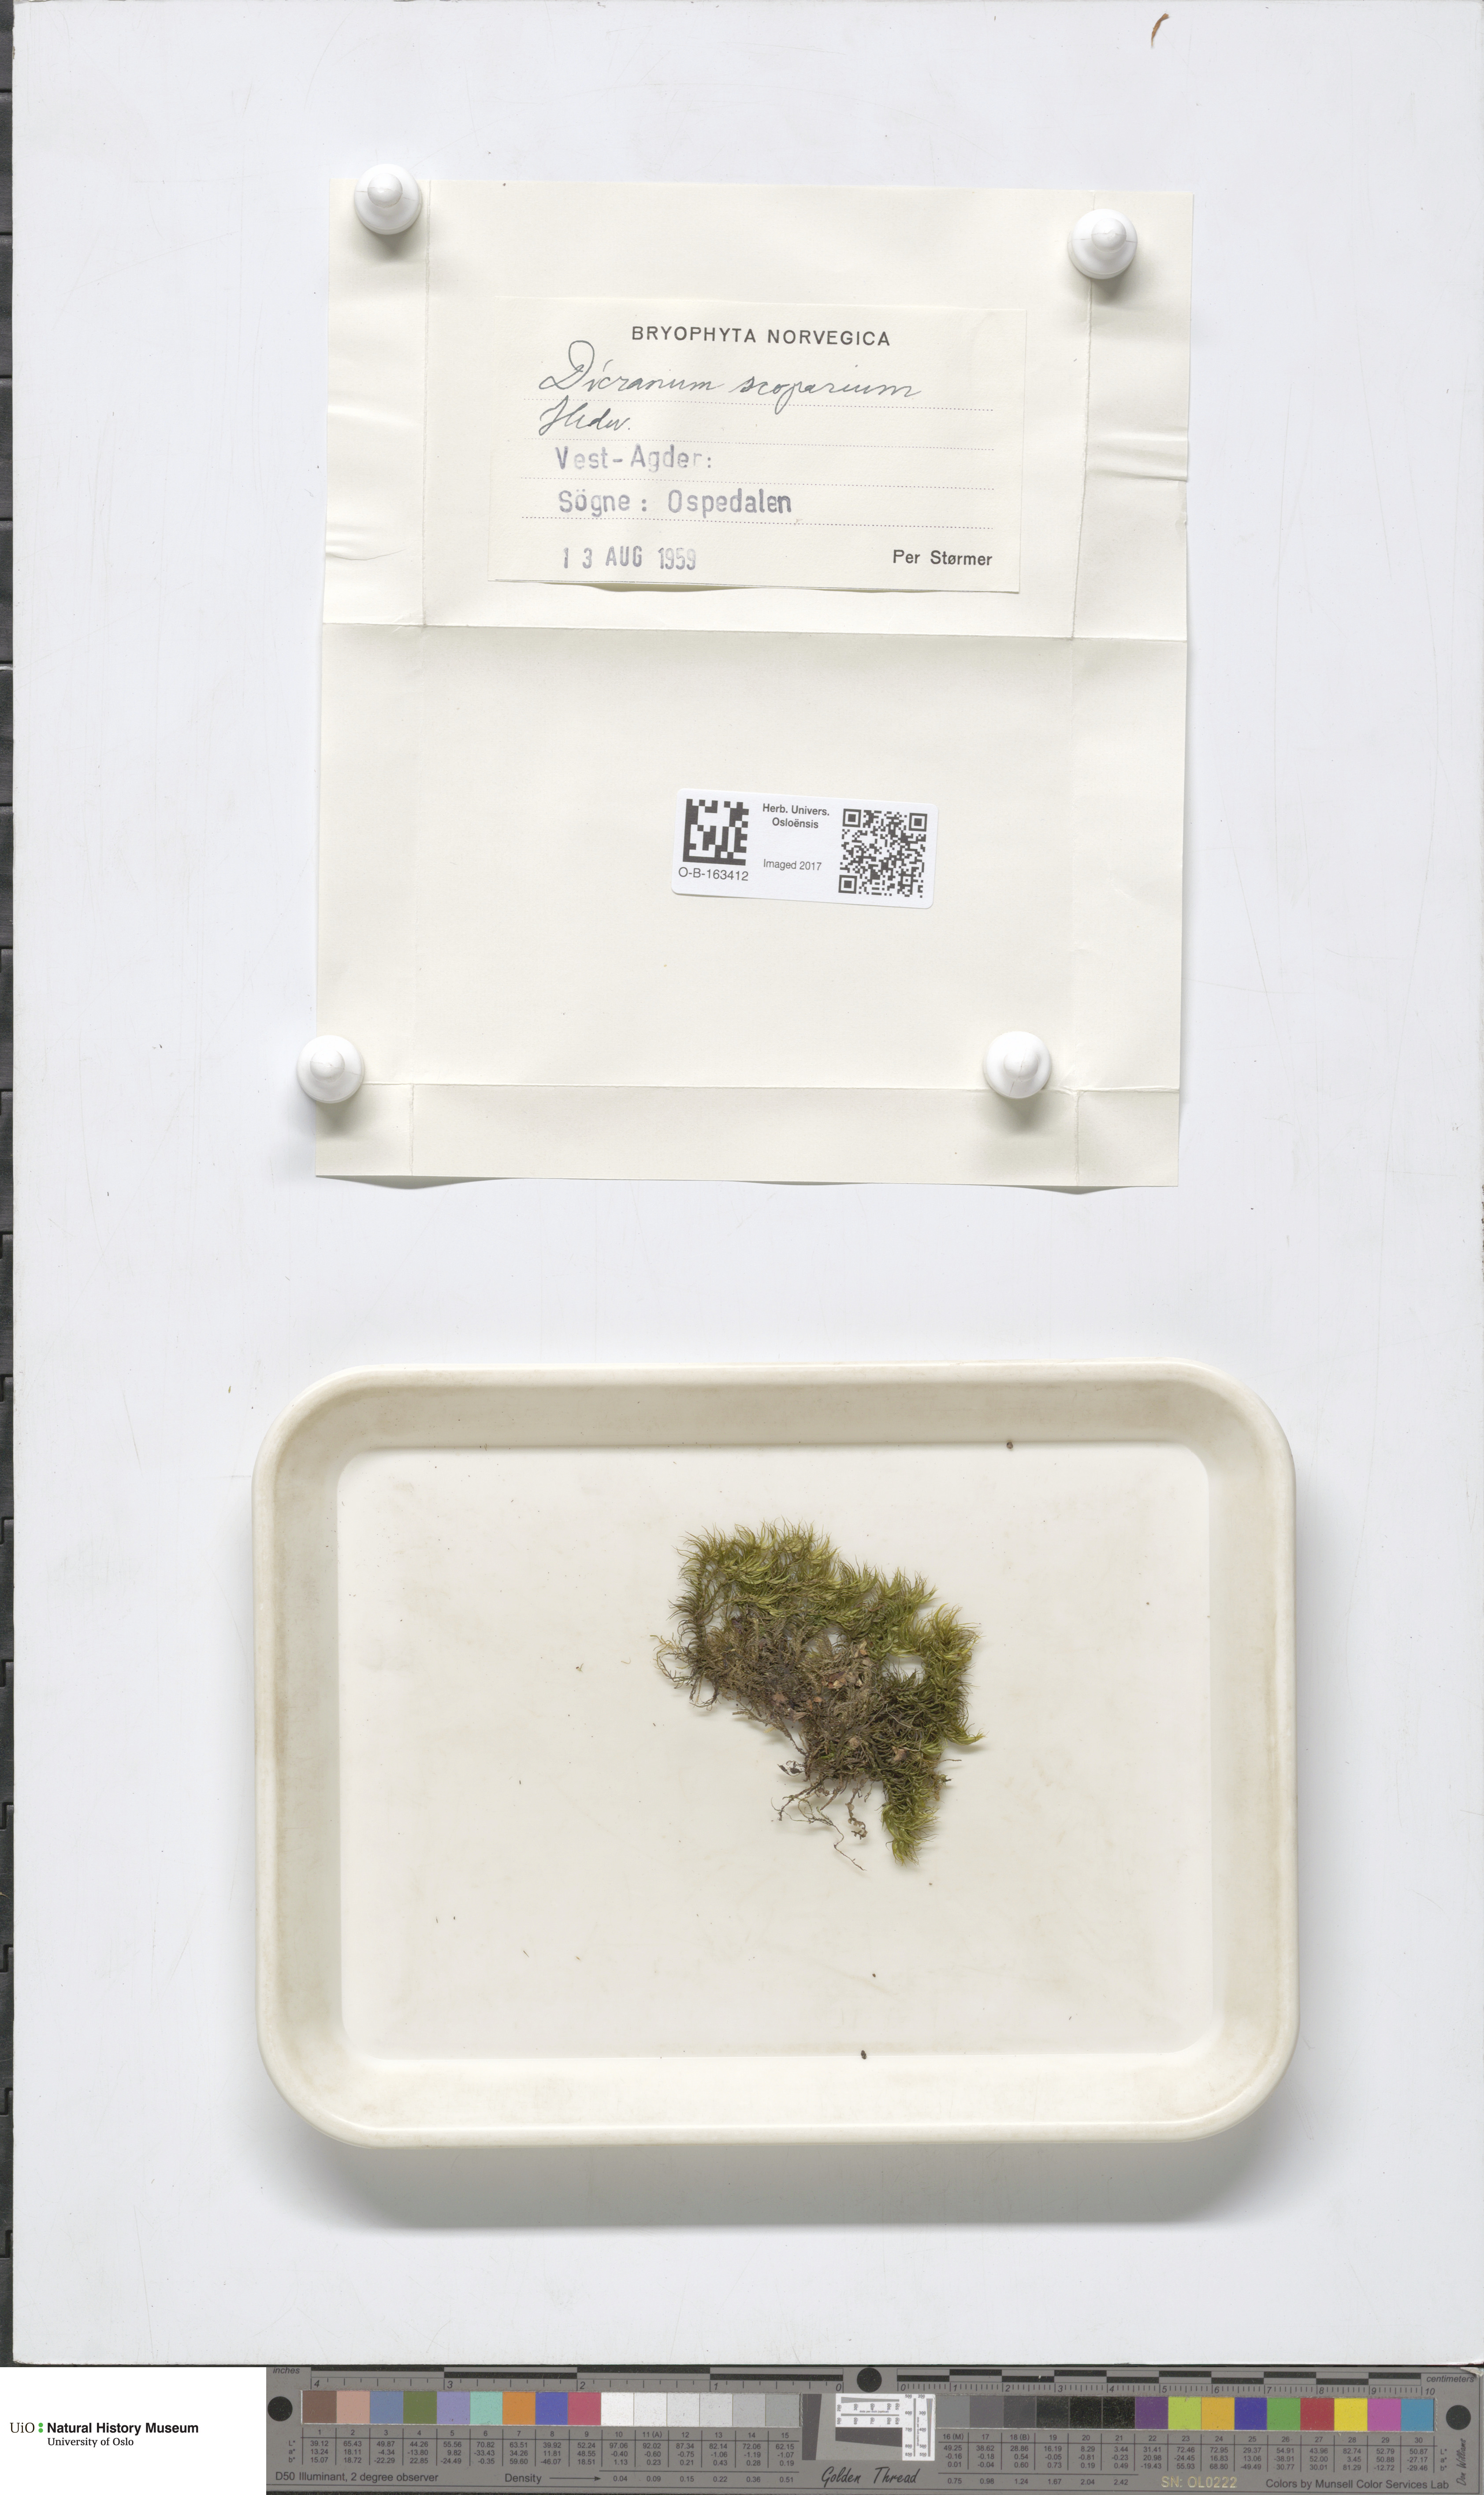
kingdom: Plantae
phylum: Bryophyta
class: Bryopsida
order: Dicranales
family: Dicranaceae
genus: Dicranum
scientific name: Dicranum scoparium
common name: Broom fork-moss
